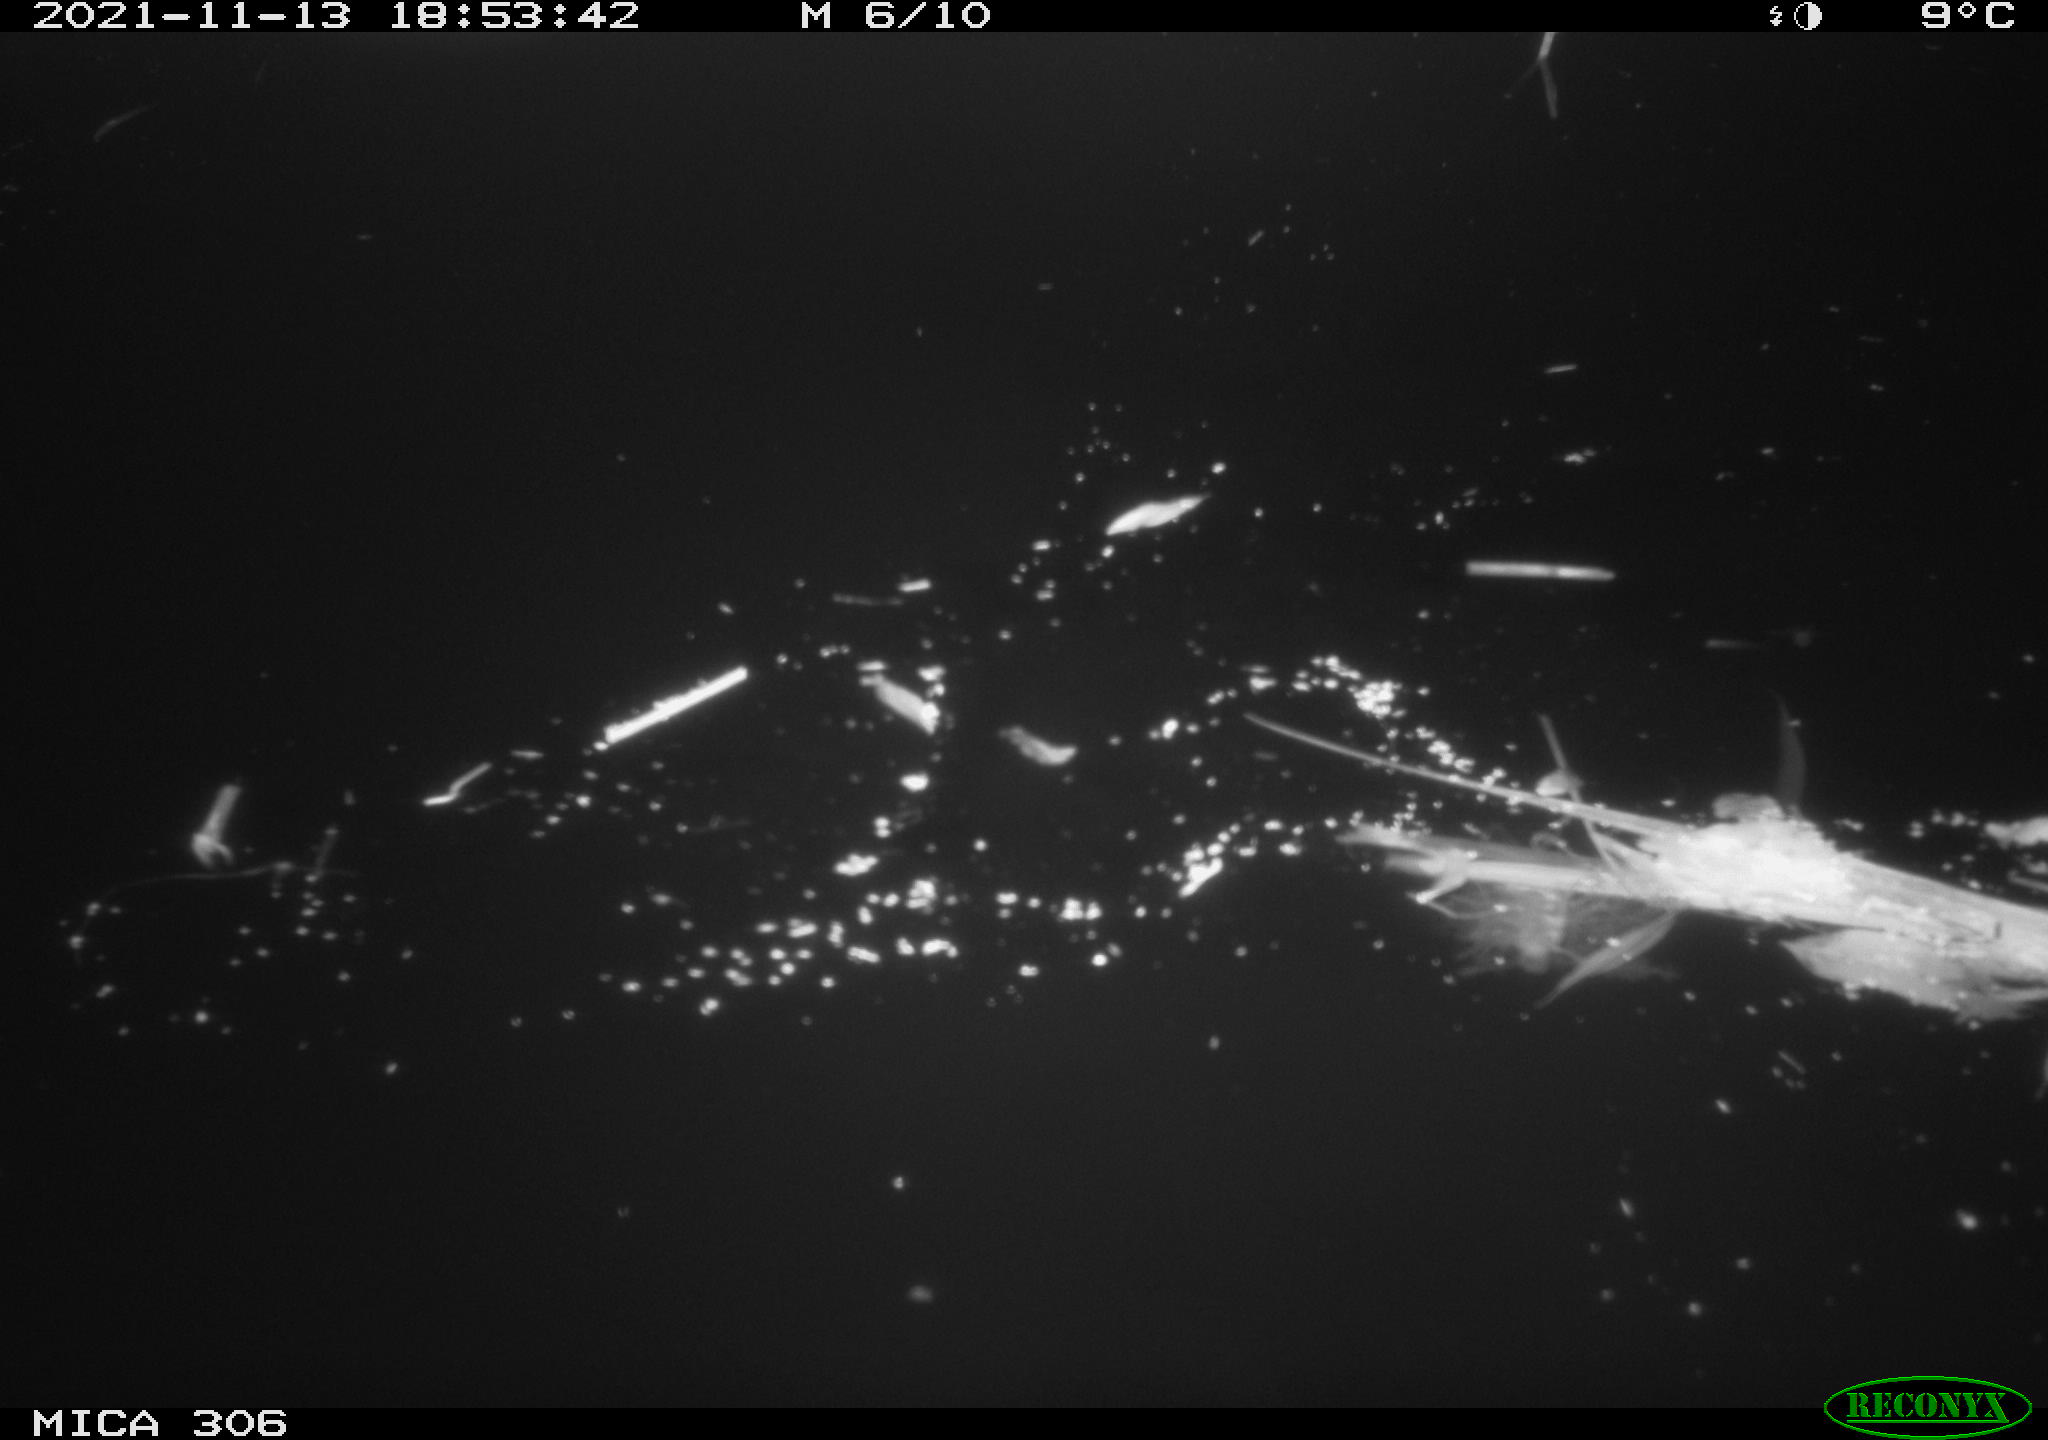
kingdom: Animalia
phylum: Chordata
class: Mammalia
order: Rodentia
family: Muridae
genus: Rattus
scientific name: Rattus norvegicus
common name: Brown rat
